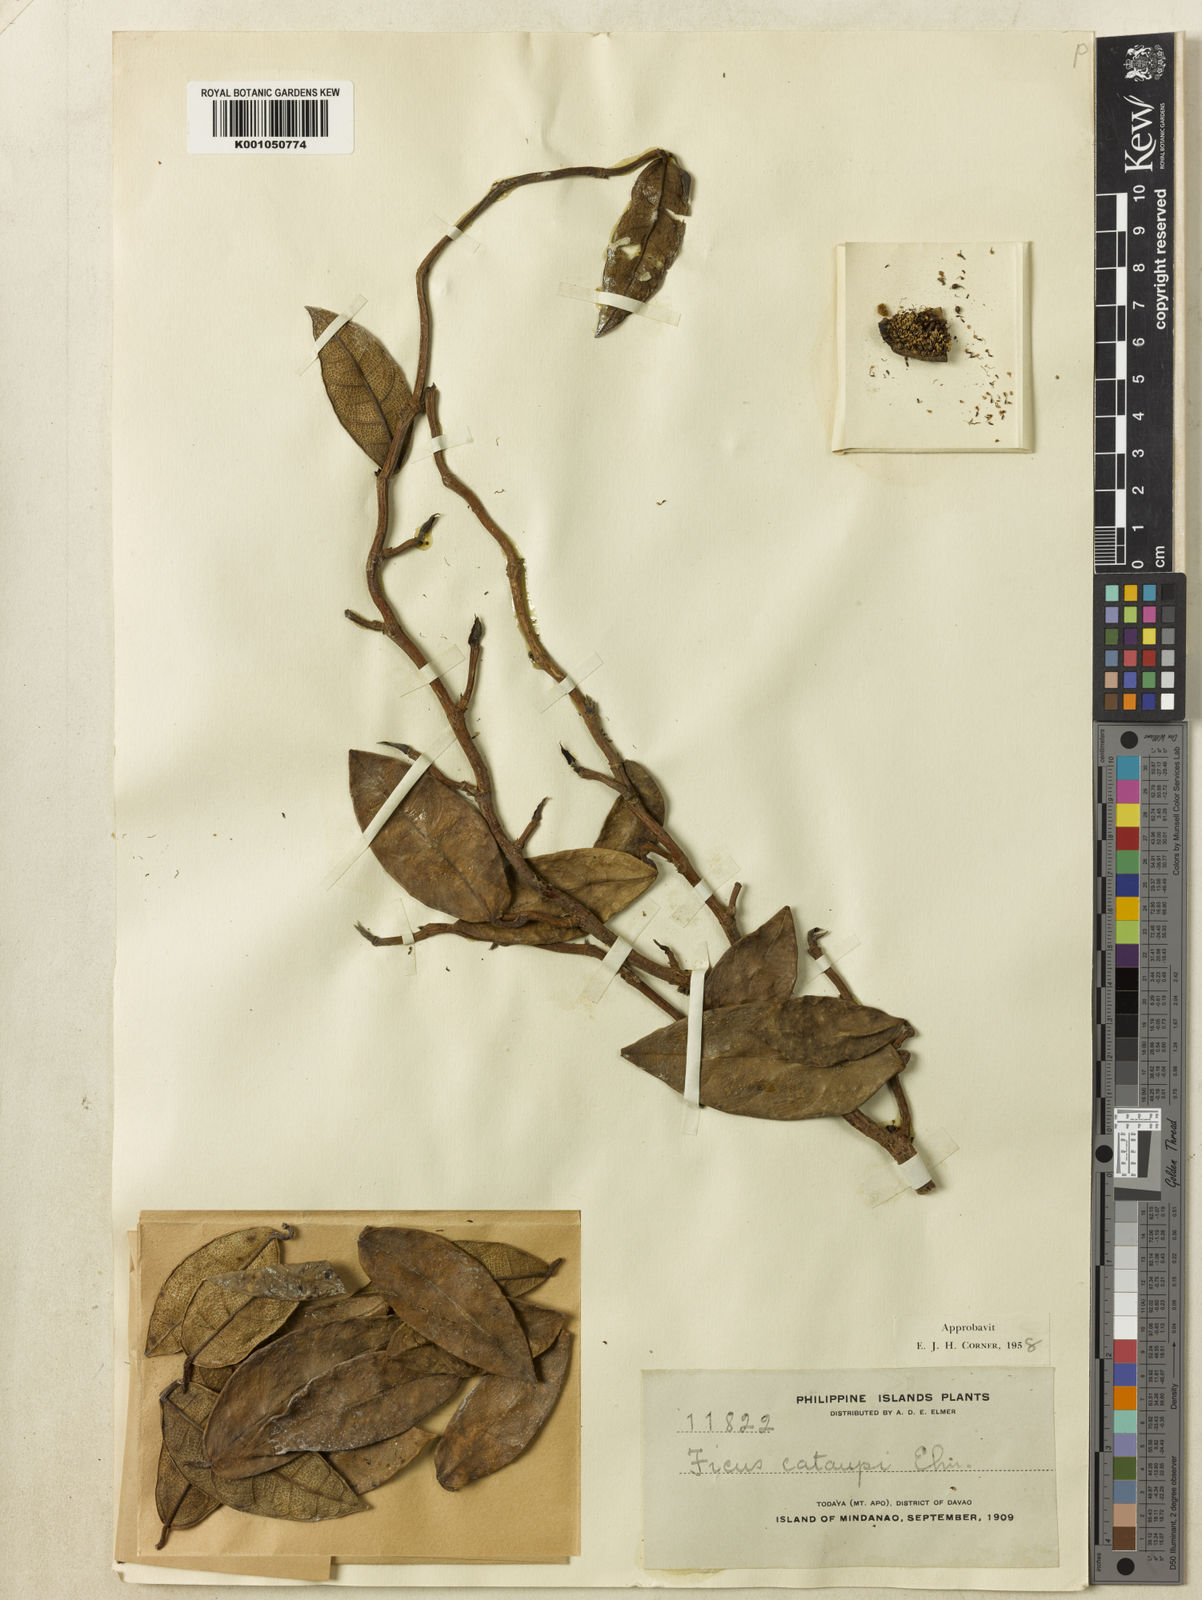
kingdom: Plantae
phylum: Tracheophyta
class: Magnoliopsida
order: Rosales
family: Moraceae
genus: Ficus
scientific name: Ficus cataupi
